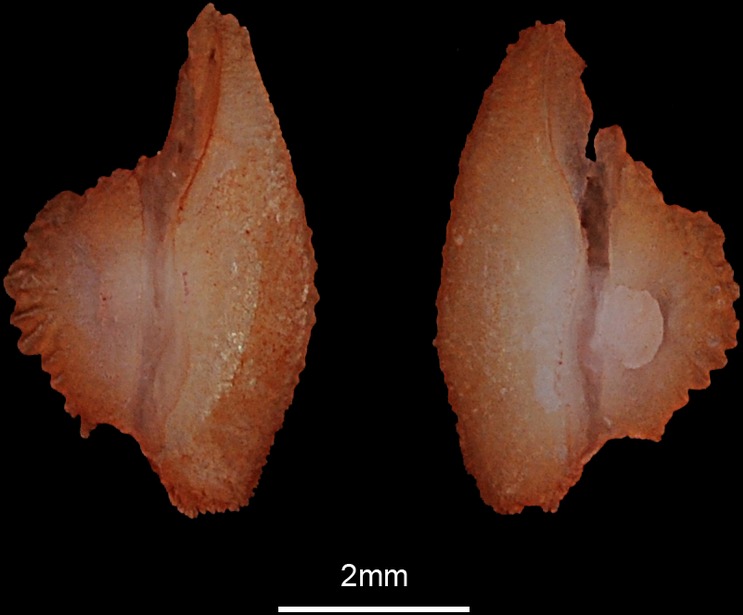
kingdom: Animalia
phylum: Chordata
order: Salmoniformes
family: Salmonidae
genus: Salmo
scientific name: Salmo trutta
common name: Brown trout
